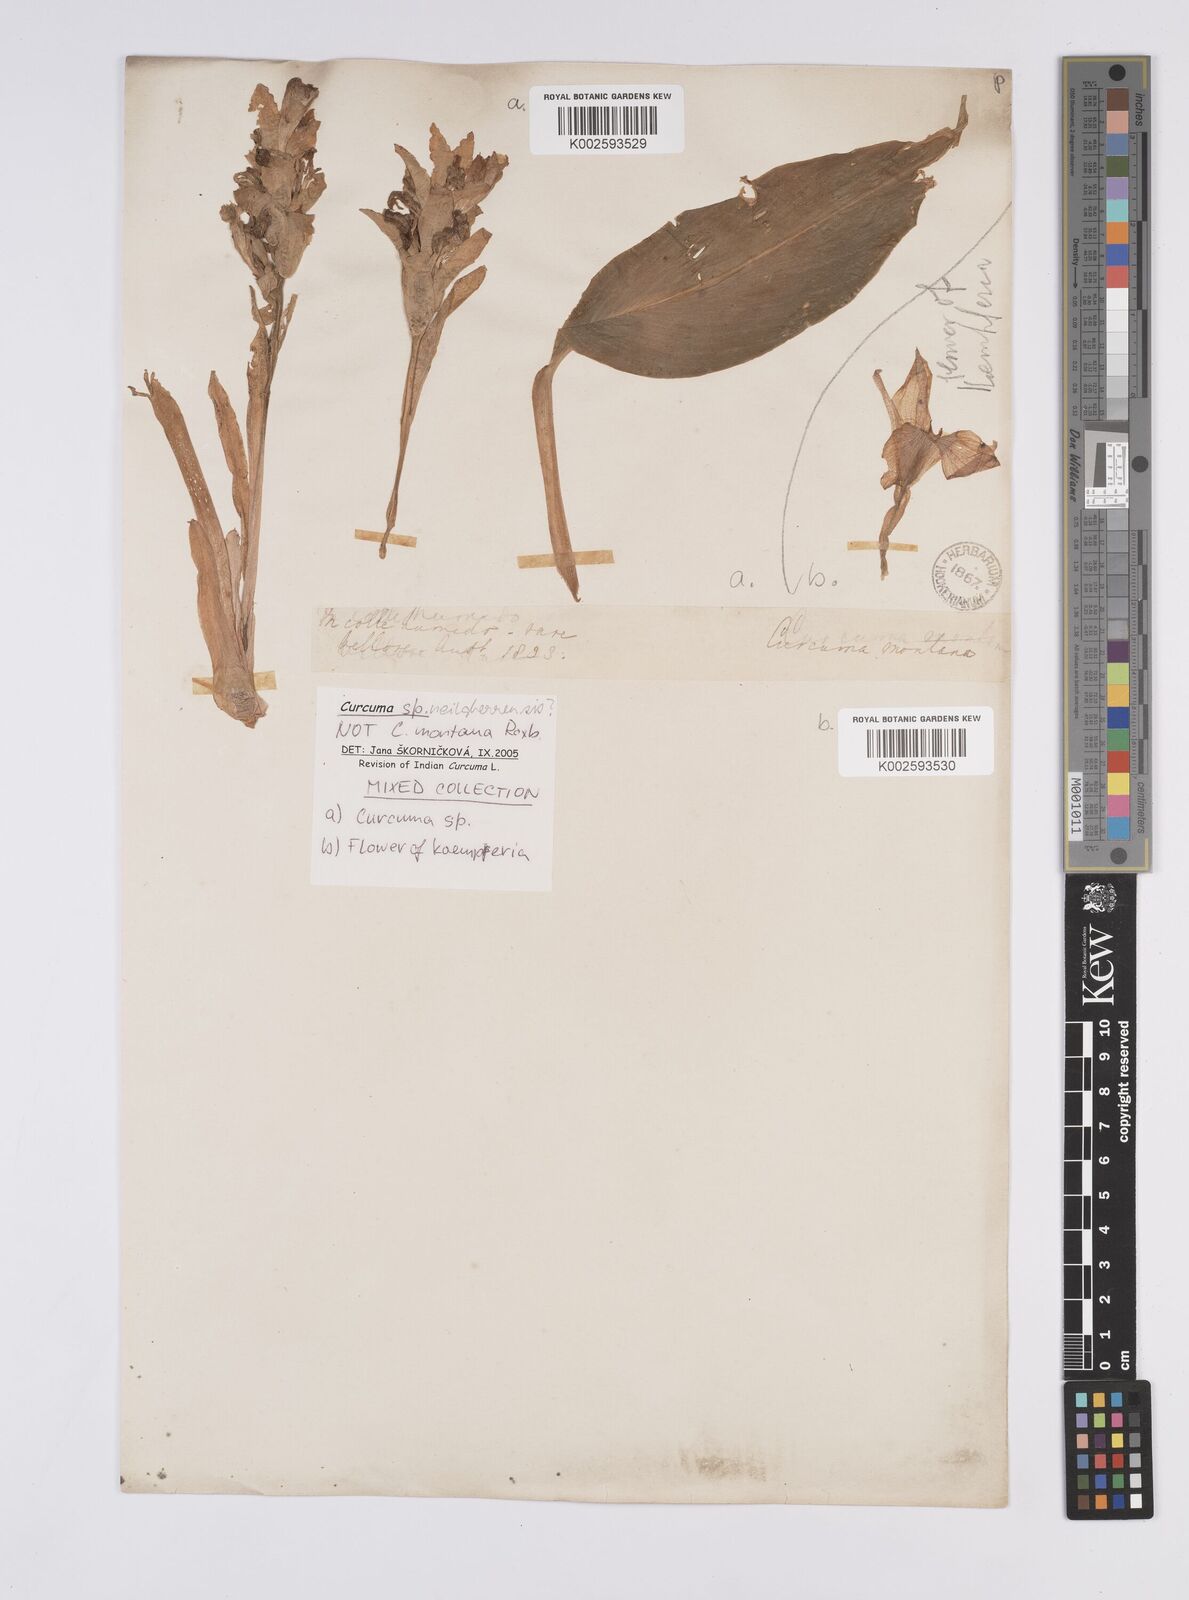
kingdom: Plantae
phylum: Tracheophyta
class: Liliopsida
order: Zingiberales
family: Zingiberaceae
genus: Curcuma
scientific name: Curcuma neilgherrensis
